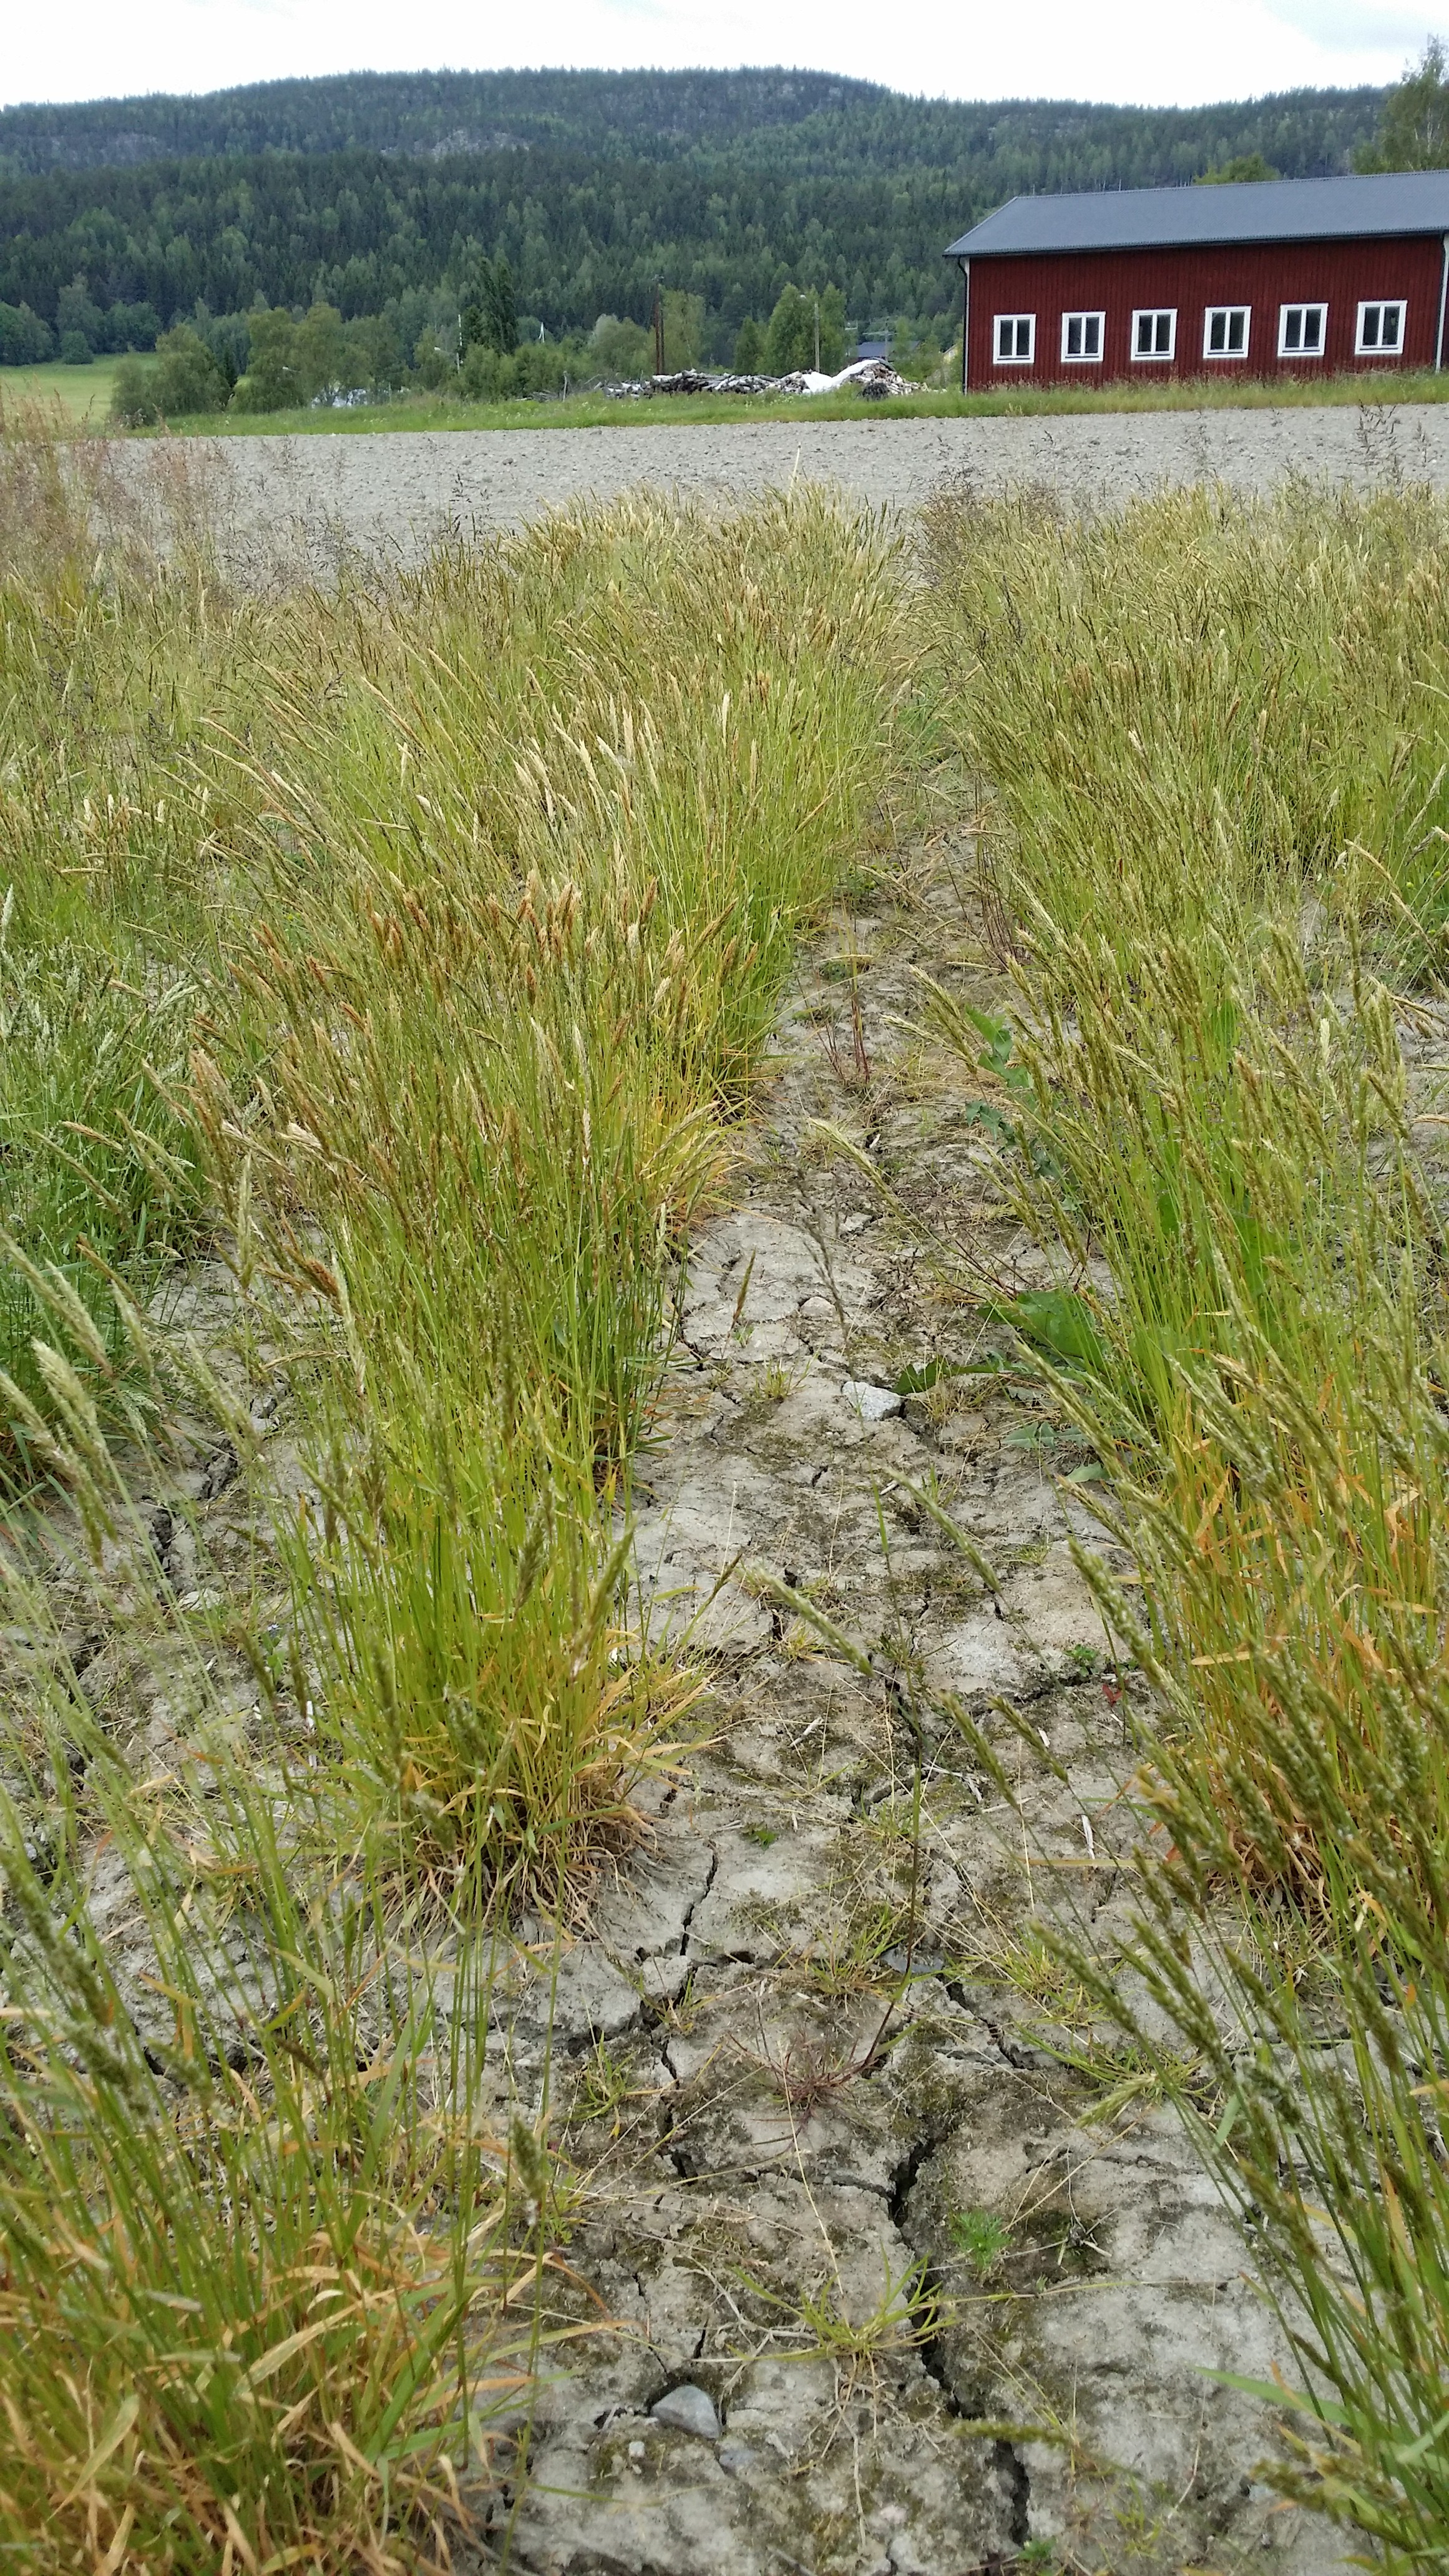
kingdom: Plantae
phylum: Tracheophyta
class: Liliopsida
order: Poales
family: Poaceae
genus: Anthoxanthum
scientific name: Anthoxanthum odoratum
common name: Sweet vernalgrass
